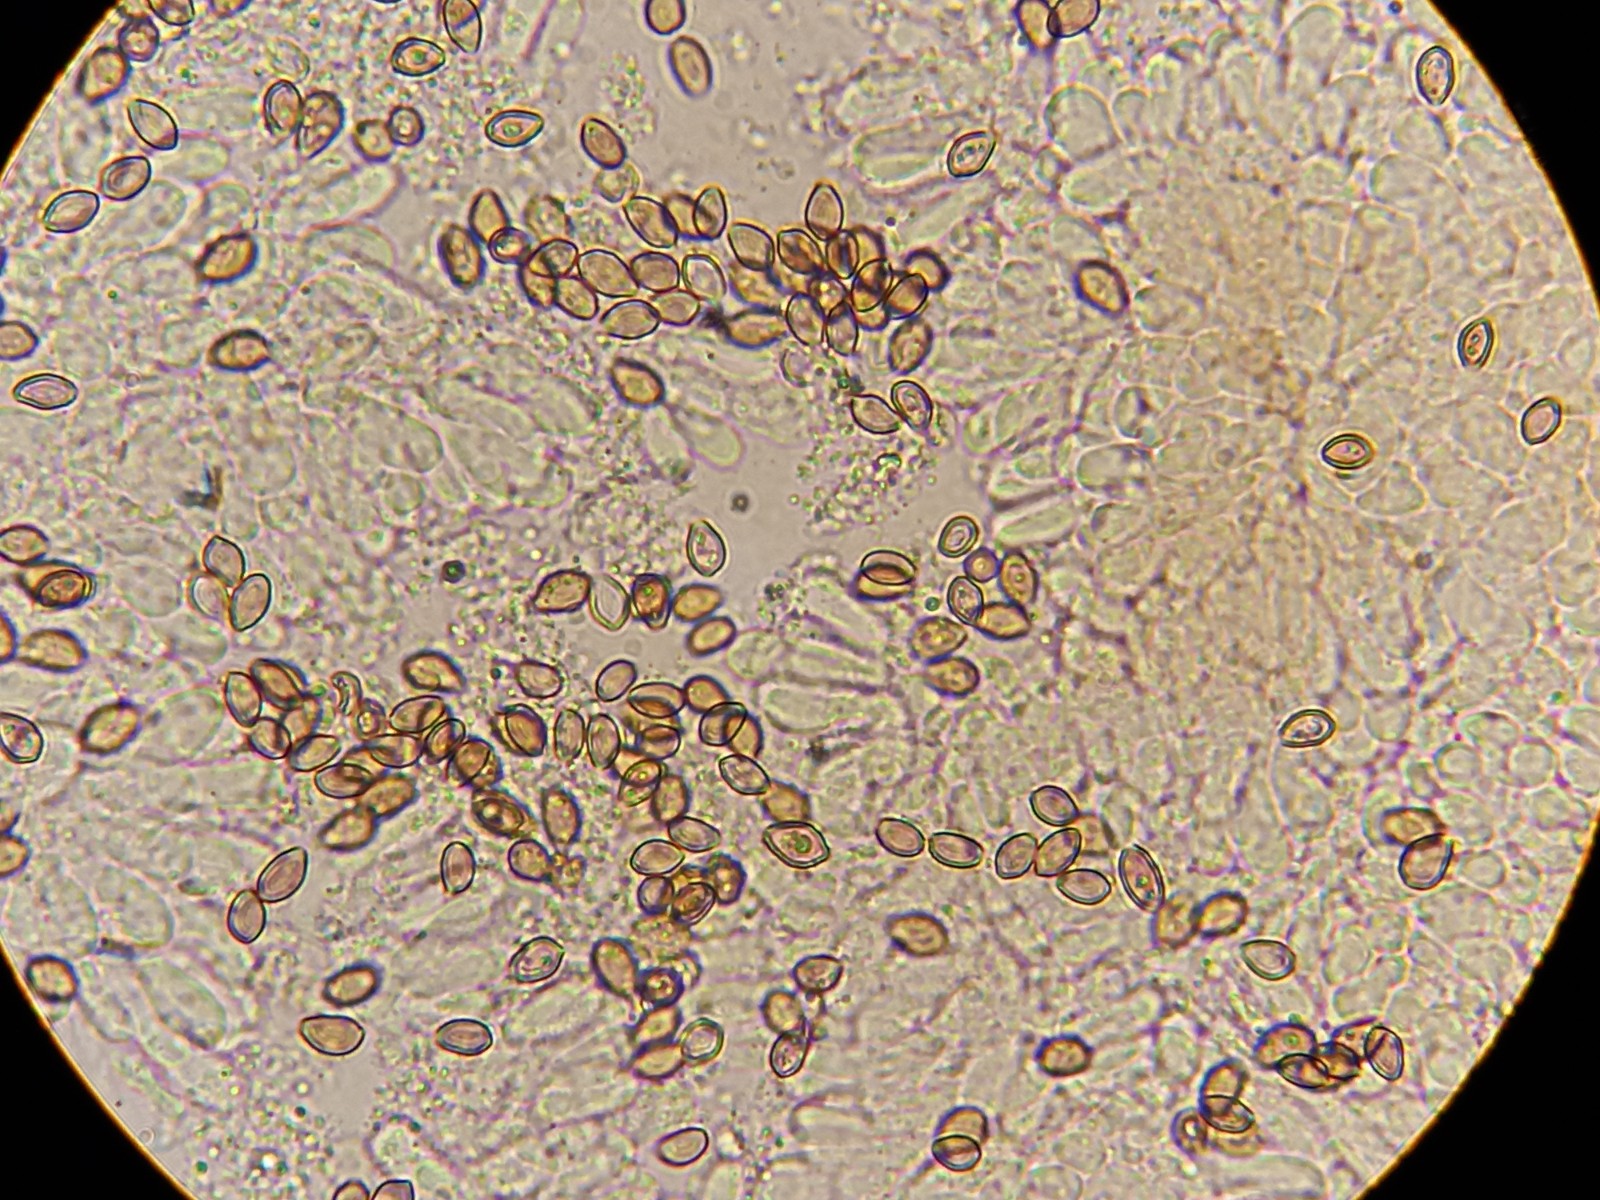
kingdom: Fungi
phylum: Basidiomycota
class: Agaricomycetes
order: Agaricales
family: Strophariaceae
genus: Deconica
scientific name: Deconica
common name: stråhat
